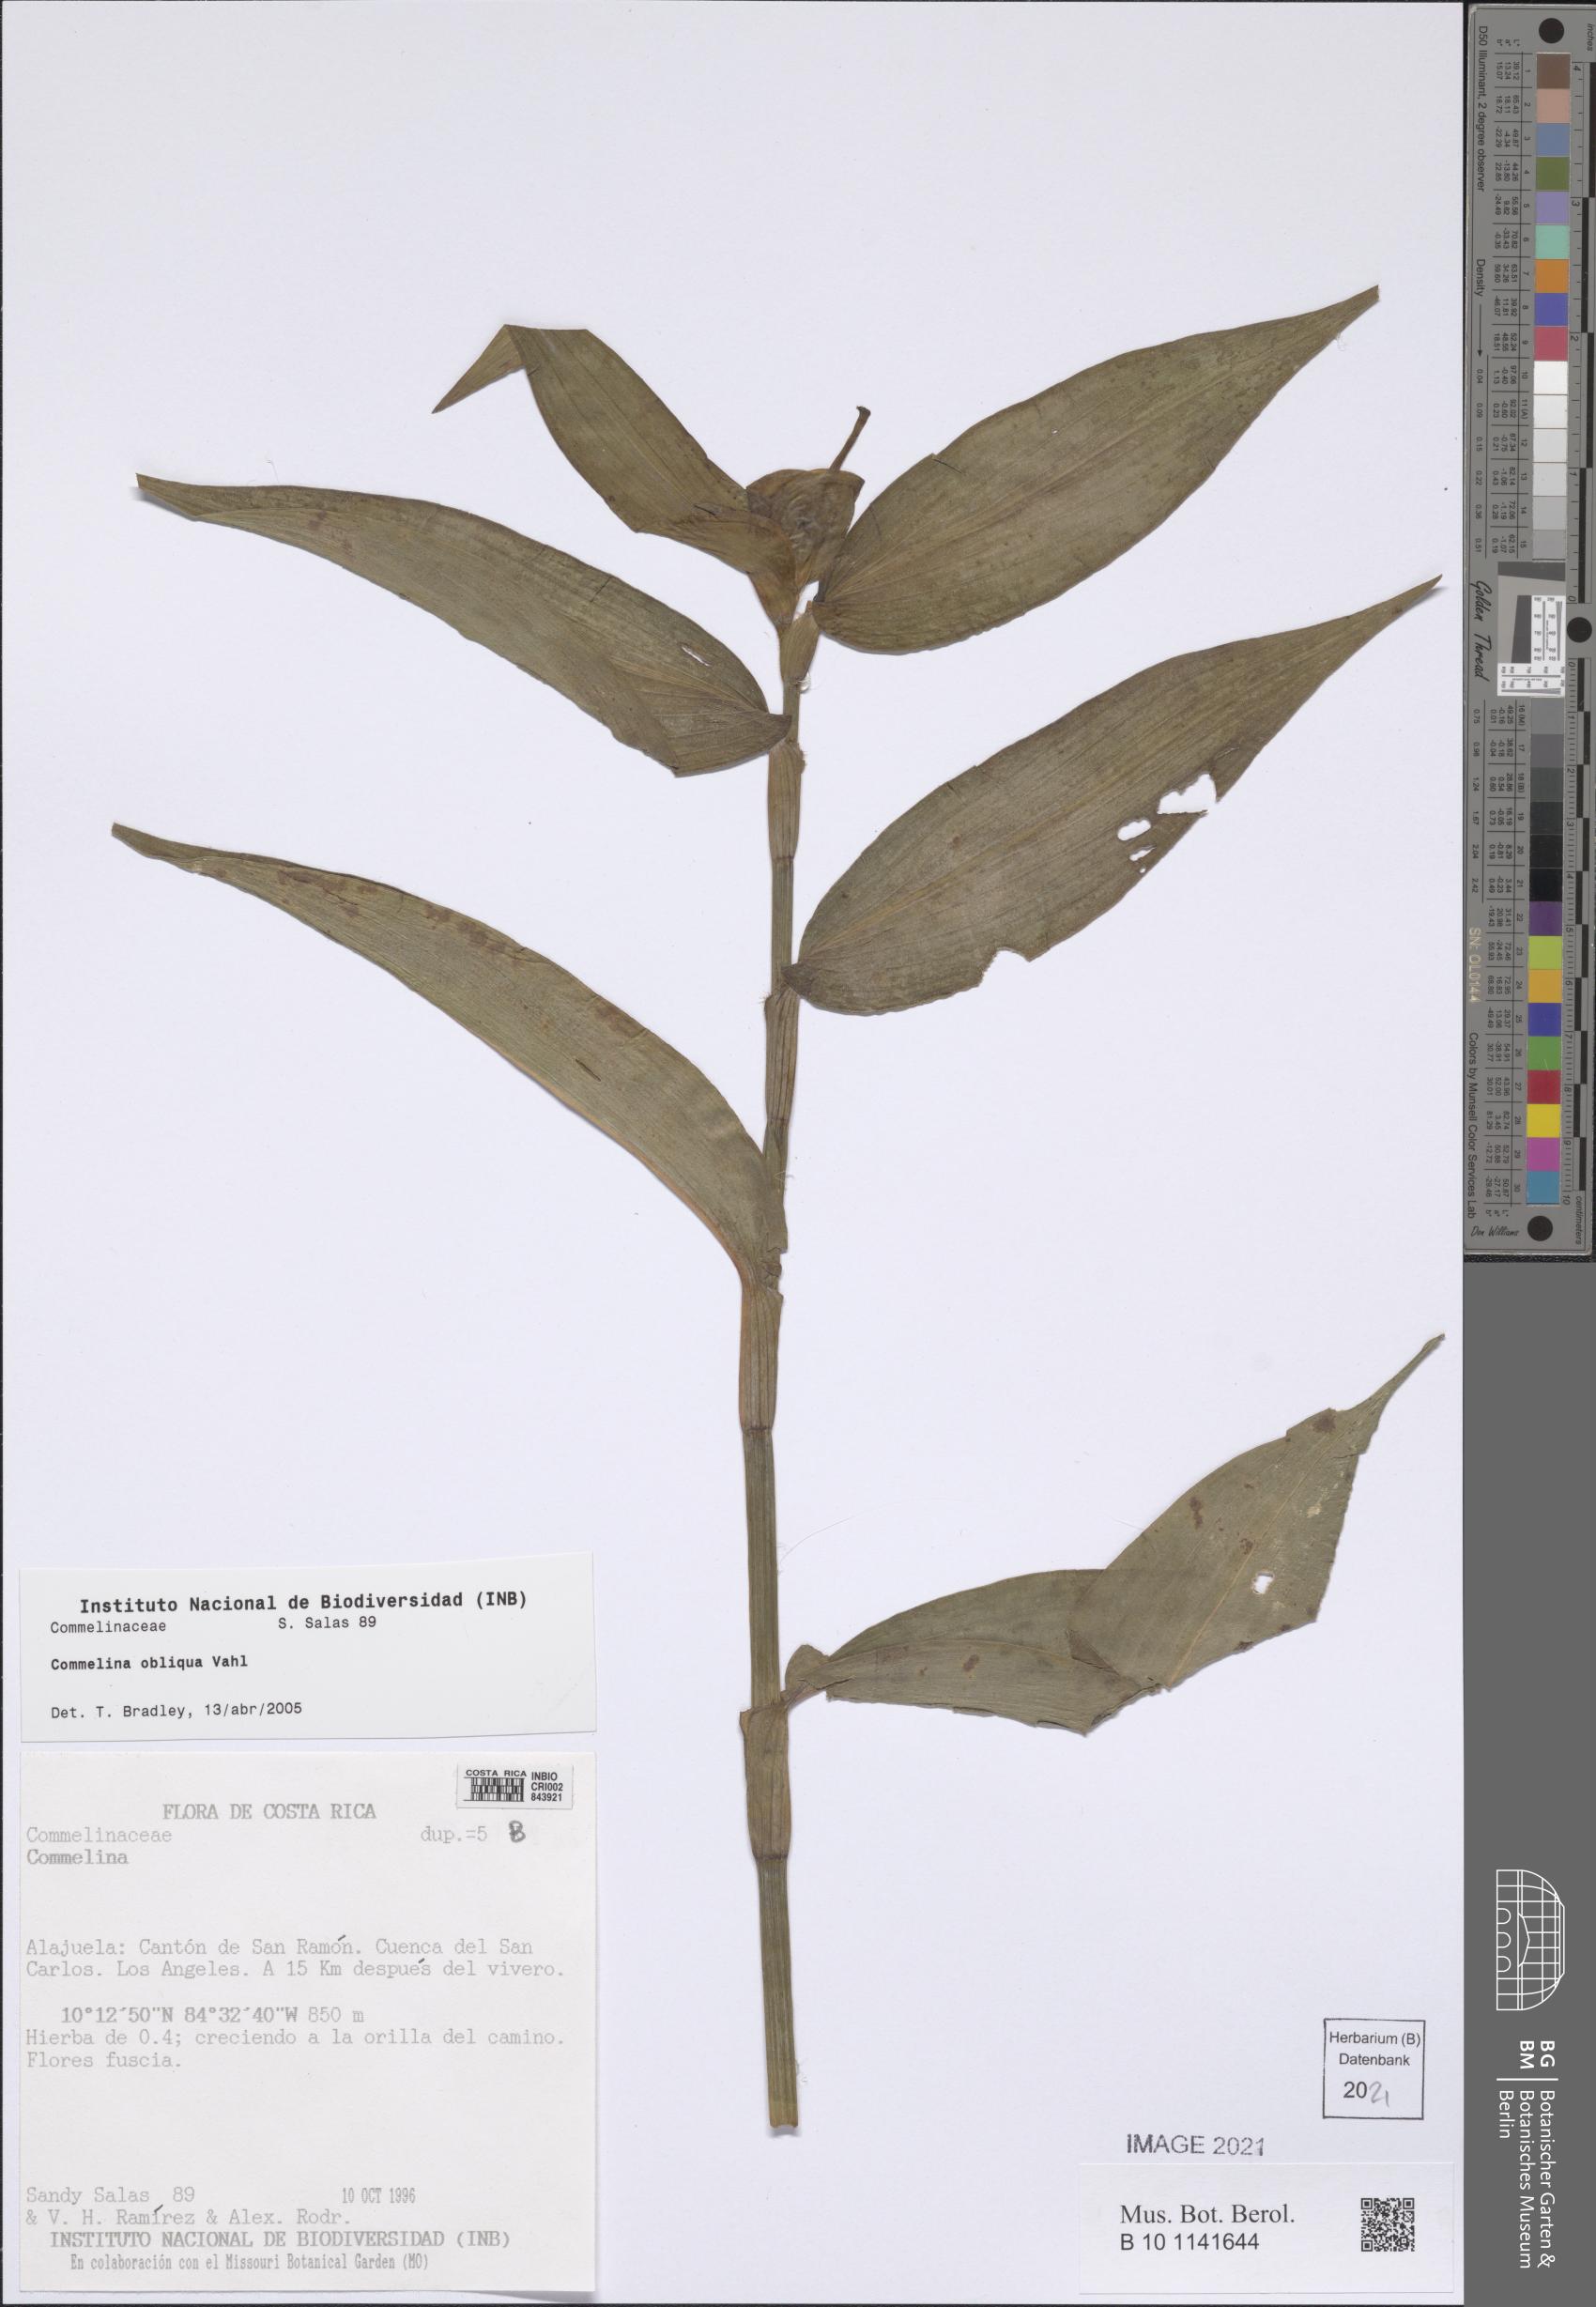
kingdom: Plantae
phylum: Tracheophyta
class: Liliopsida
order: Commelinales
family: Commelinaceae
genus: Commelina
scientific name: Commelina obliqua
